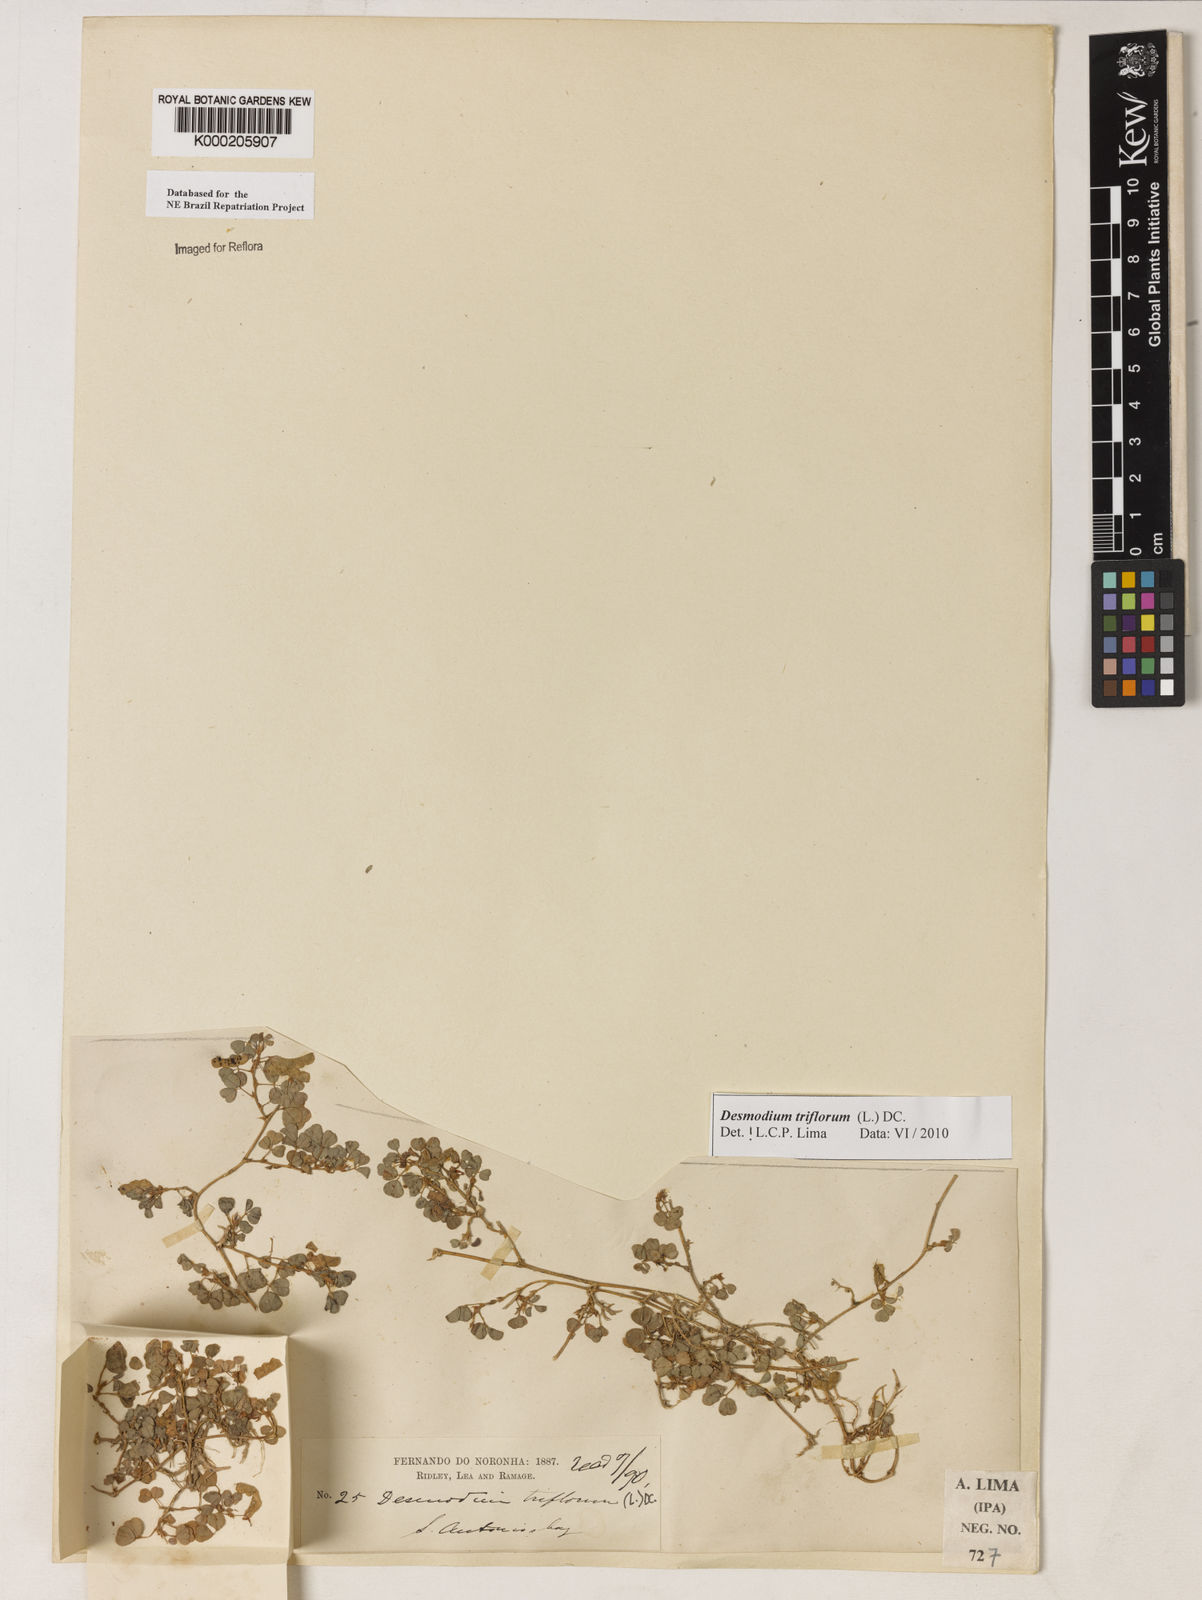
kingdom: Plantae
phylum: Tracheophyta
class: Magnoliopsida
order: Fabales
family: Fabaceae
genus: Grona
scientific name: Grona triflora
